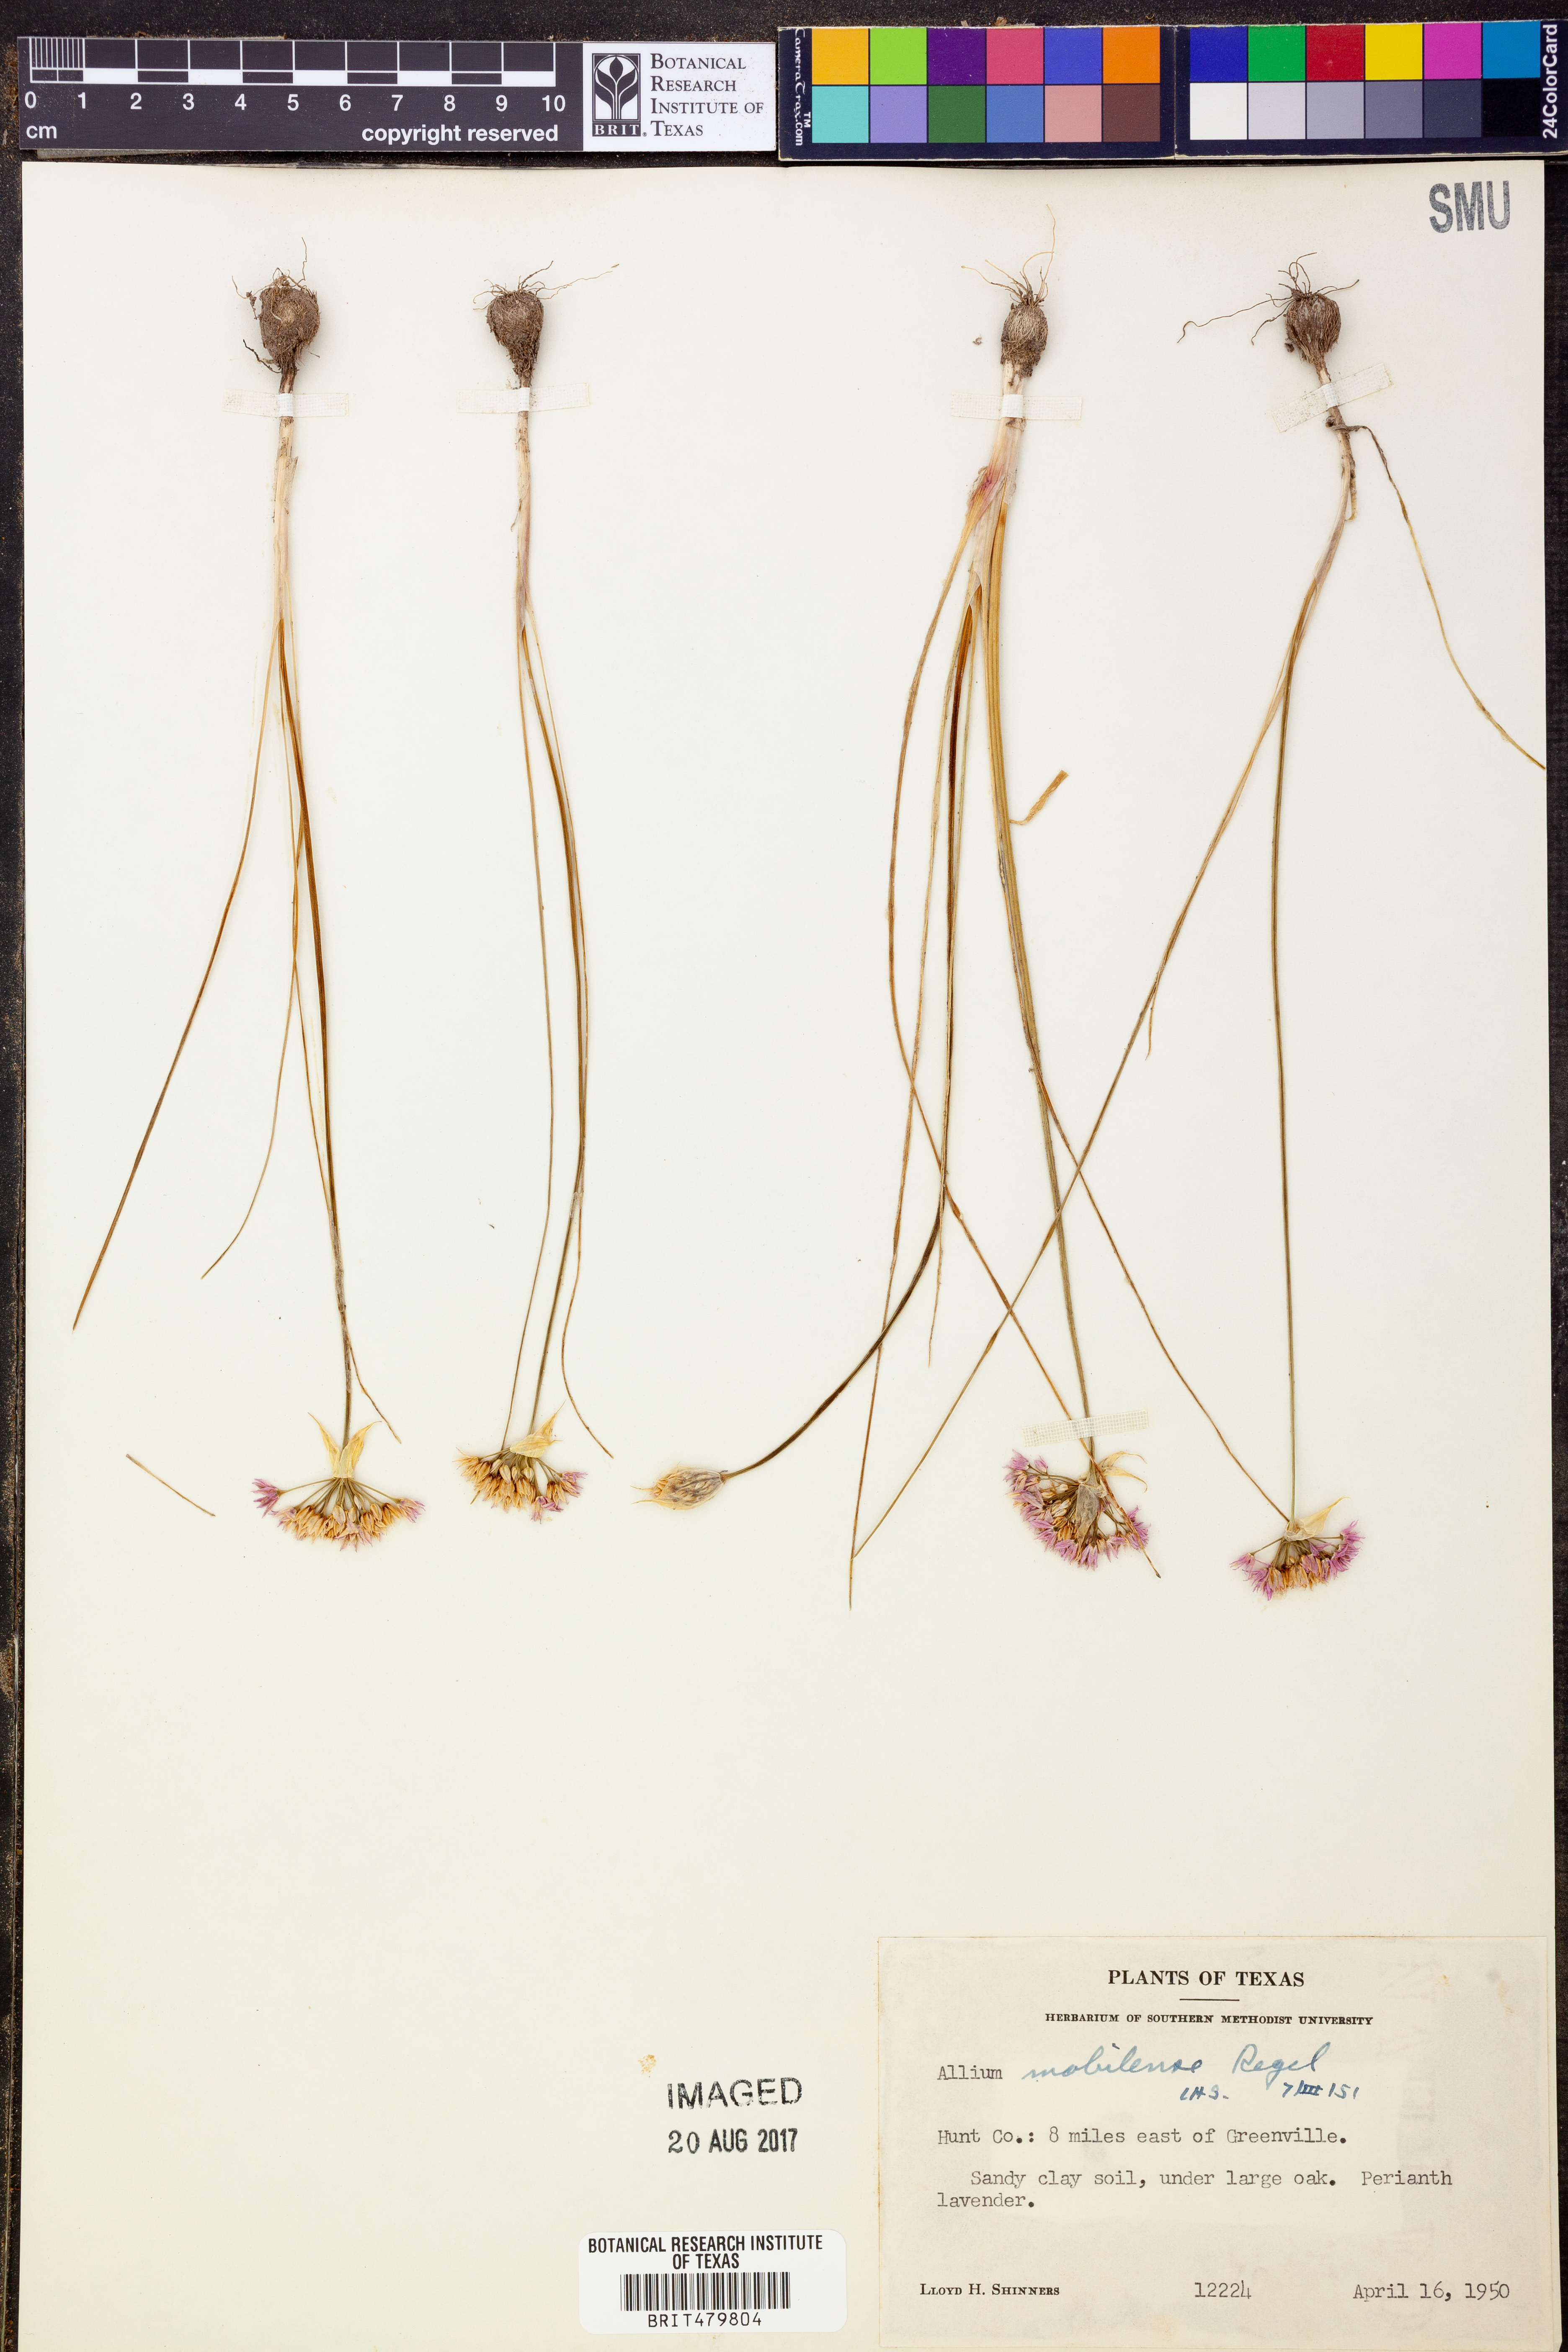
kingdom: Plantae
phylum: Tracheophyta
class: Liliopsida
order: Asparagales
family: Amaryllidaceae
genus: Allium
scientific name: Allium canadense
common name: Meadow garlic
